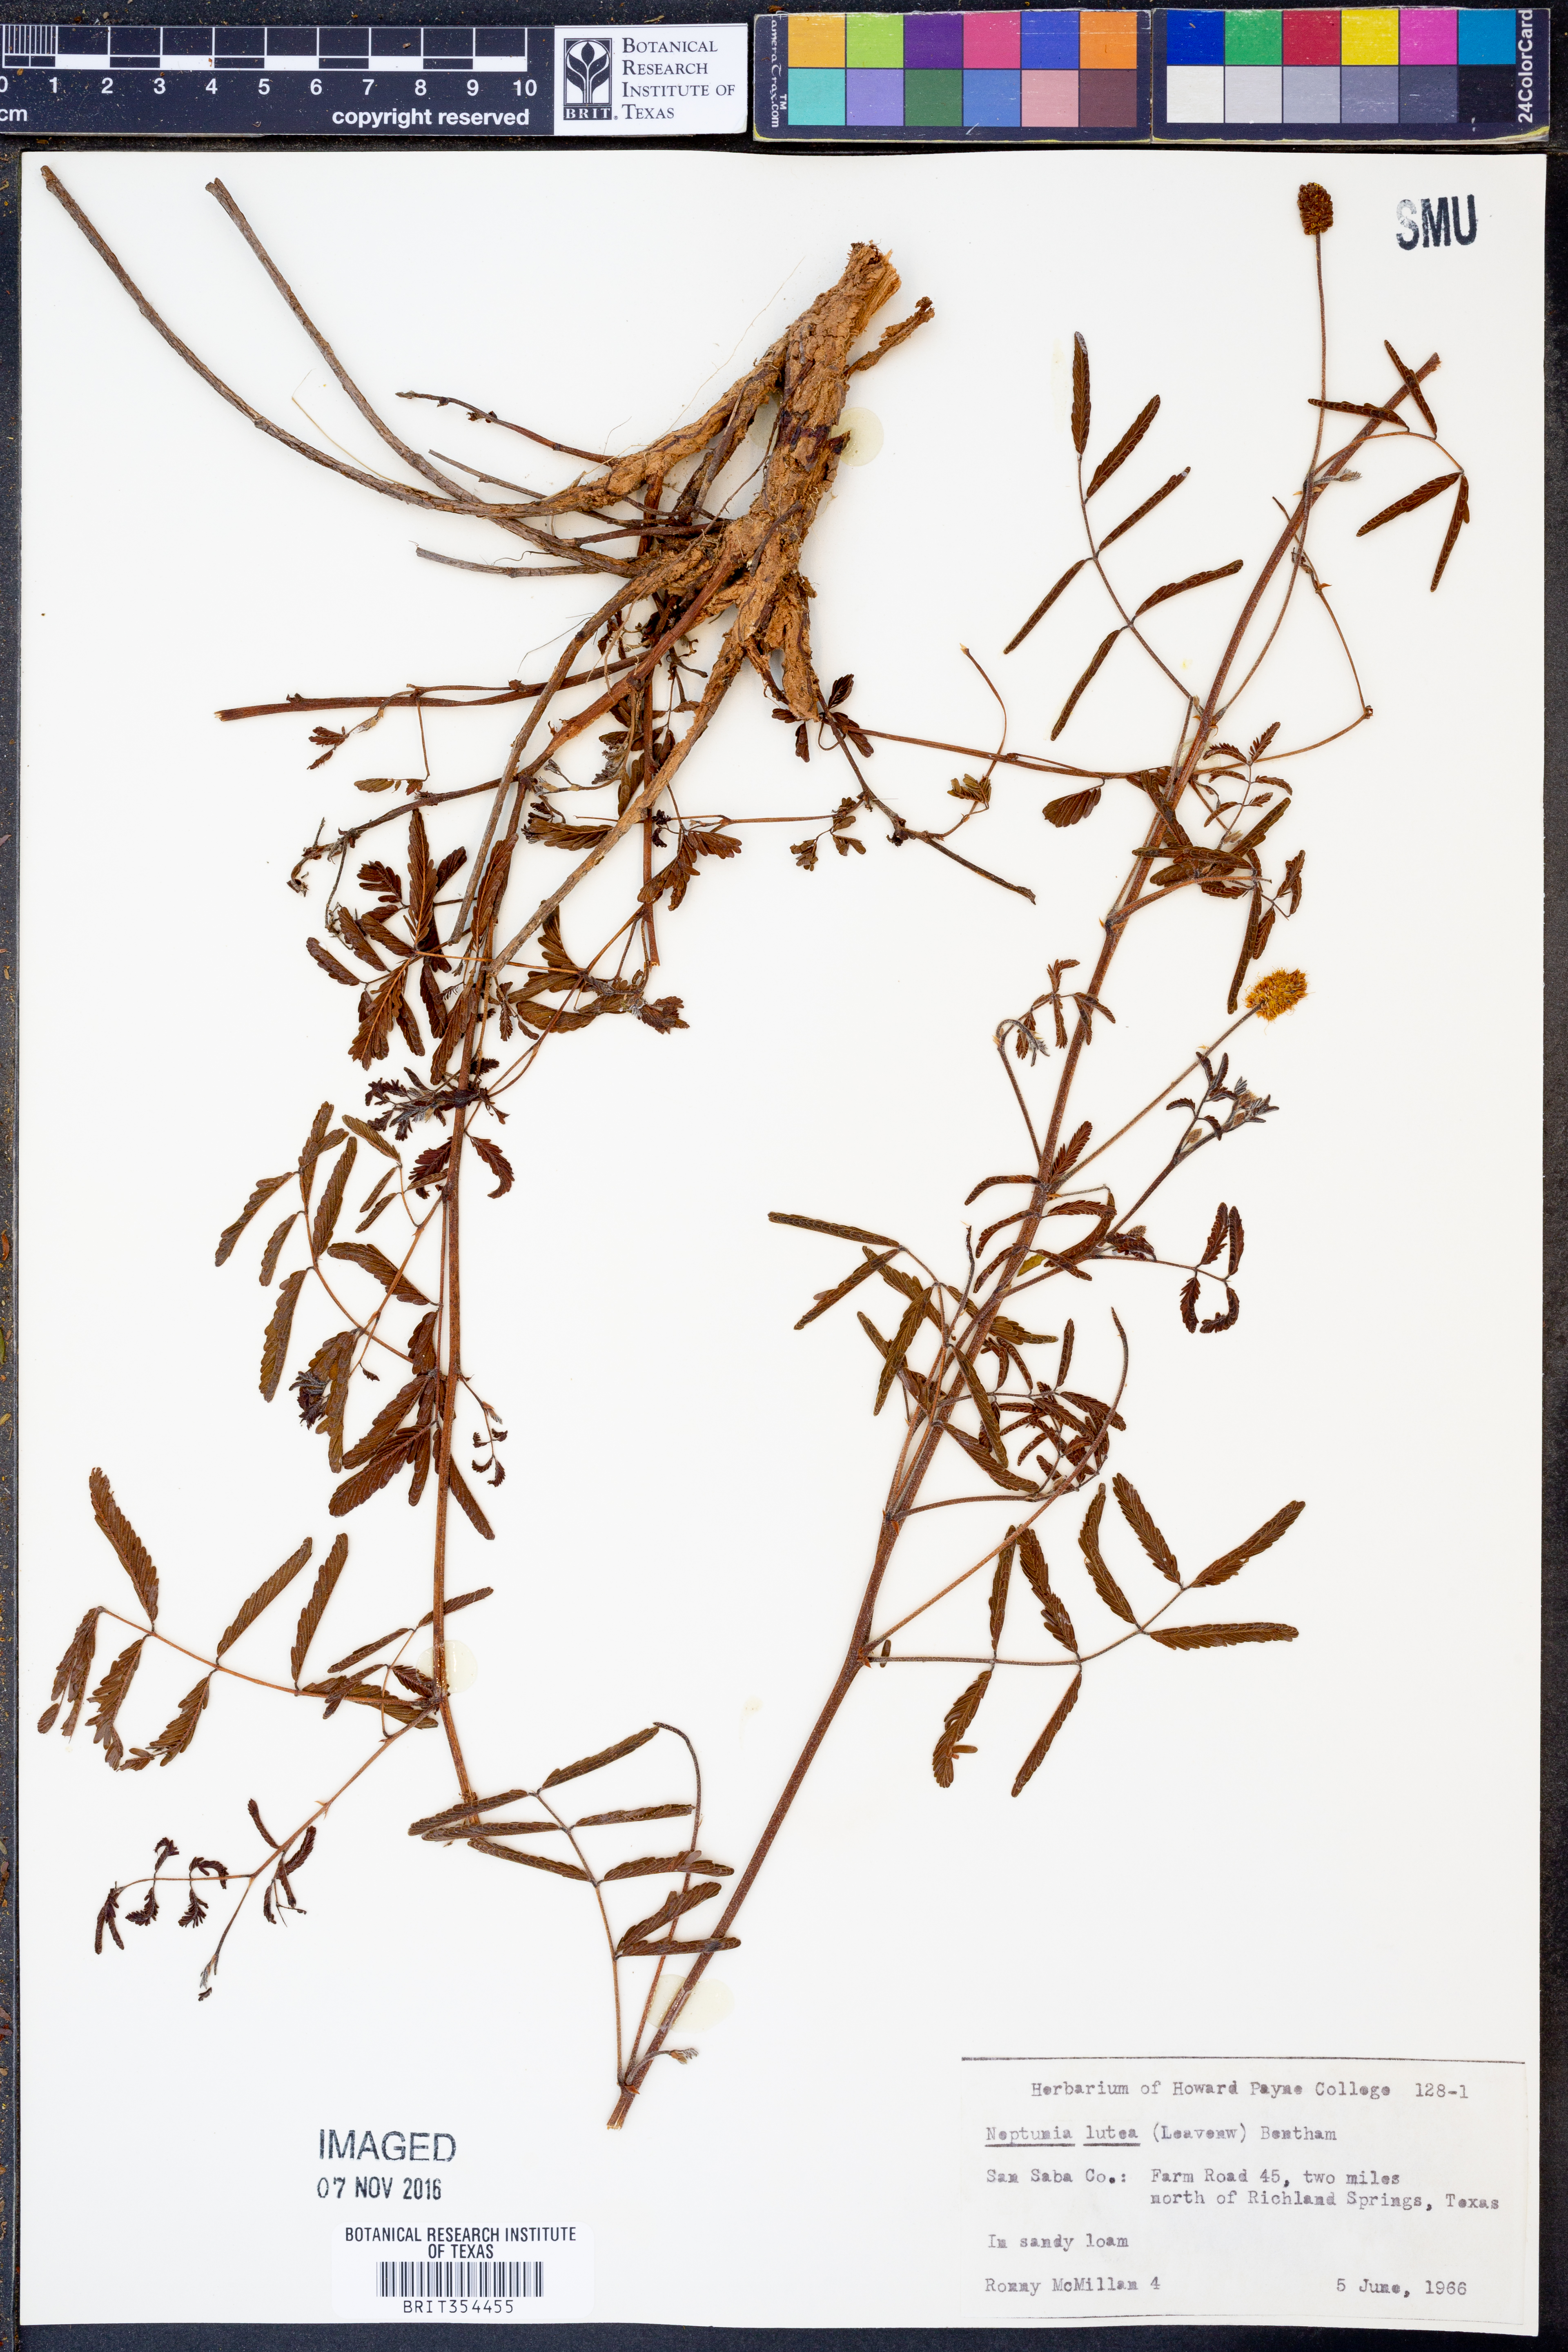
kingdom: Plantae
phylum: Tracheophyta
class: Magnoliopsida
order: Fabales
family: Fabaceae
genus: Neptunia
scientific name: Neptunia lutea
